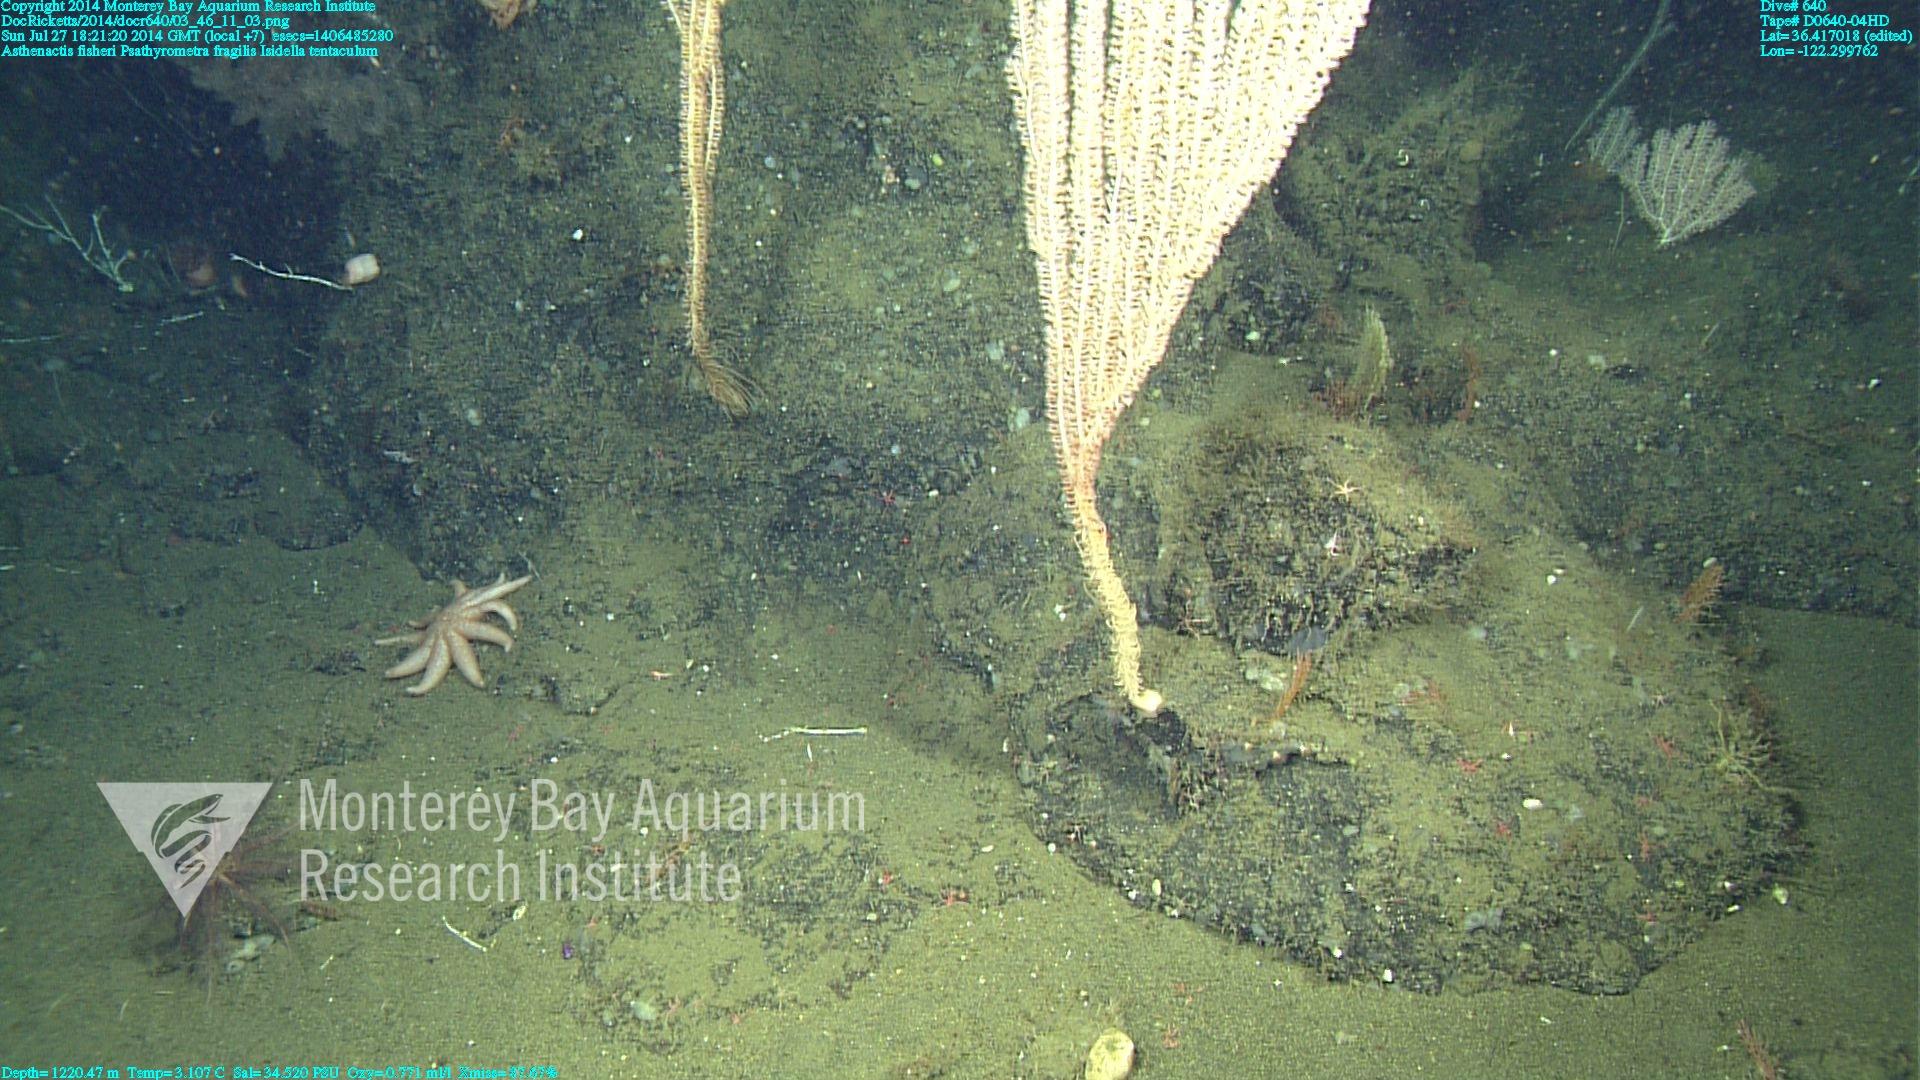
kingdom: Animalia
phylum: Cnidaria
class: Anthozoa
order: Scleralcyonacea
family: Keratoisididae
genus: Isidella
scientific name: Isidella tentaculum
